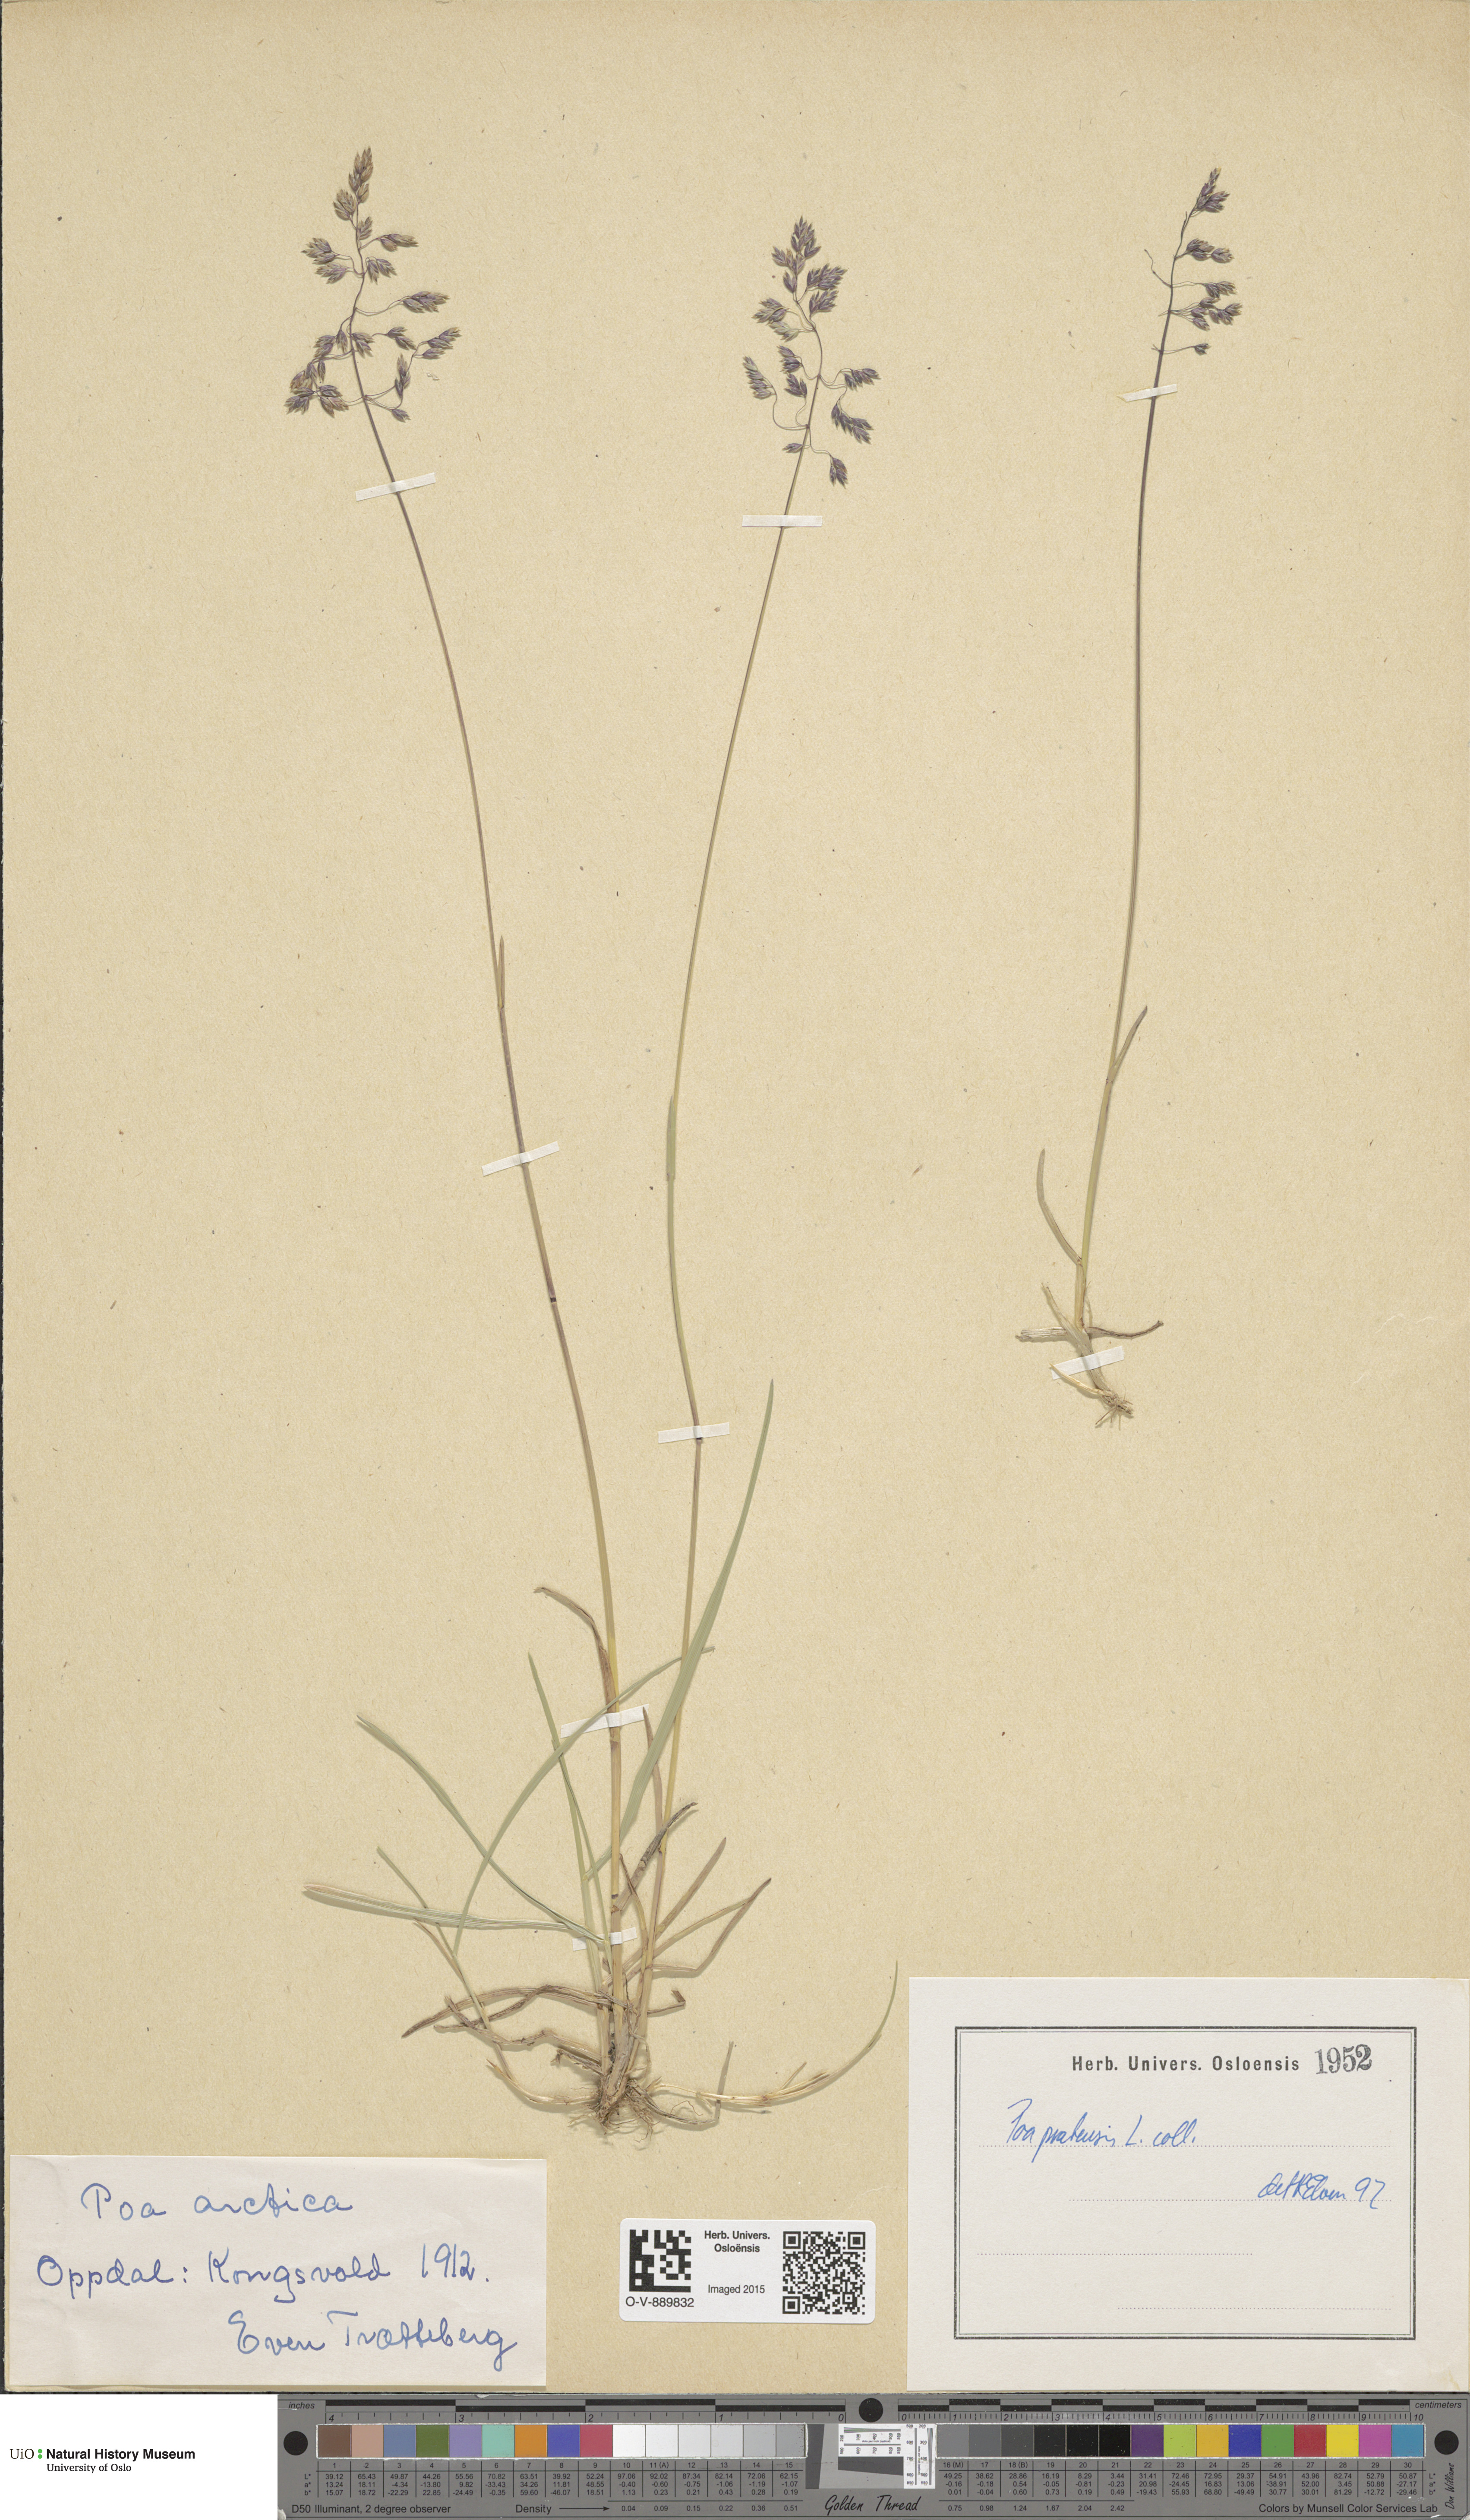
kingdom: Plantae
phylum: Tracheophyta
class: Liliopsida
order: Poales
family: Poaceae
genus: Poa
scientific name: Poa pratensis
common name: Kentucky bluegrass
